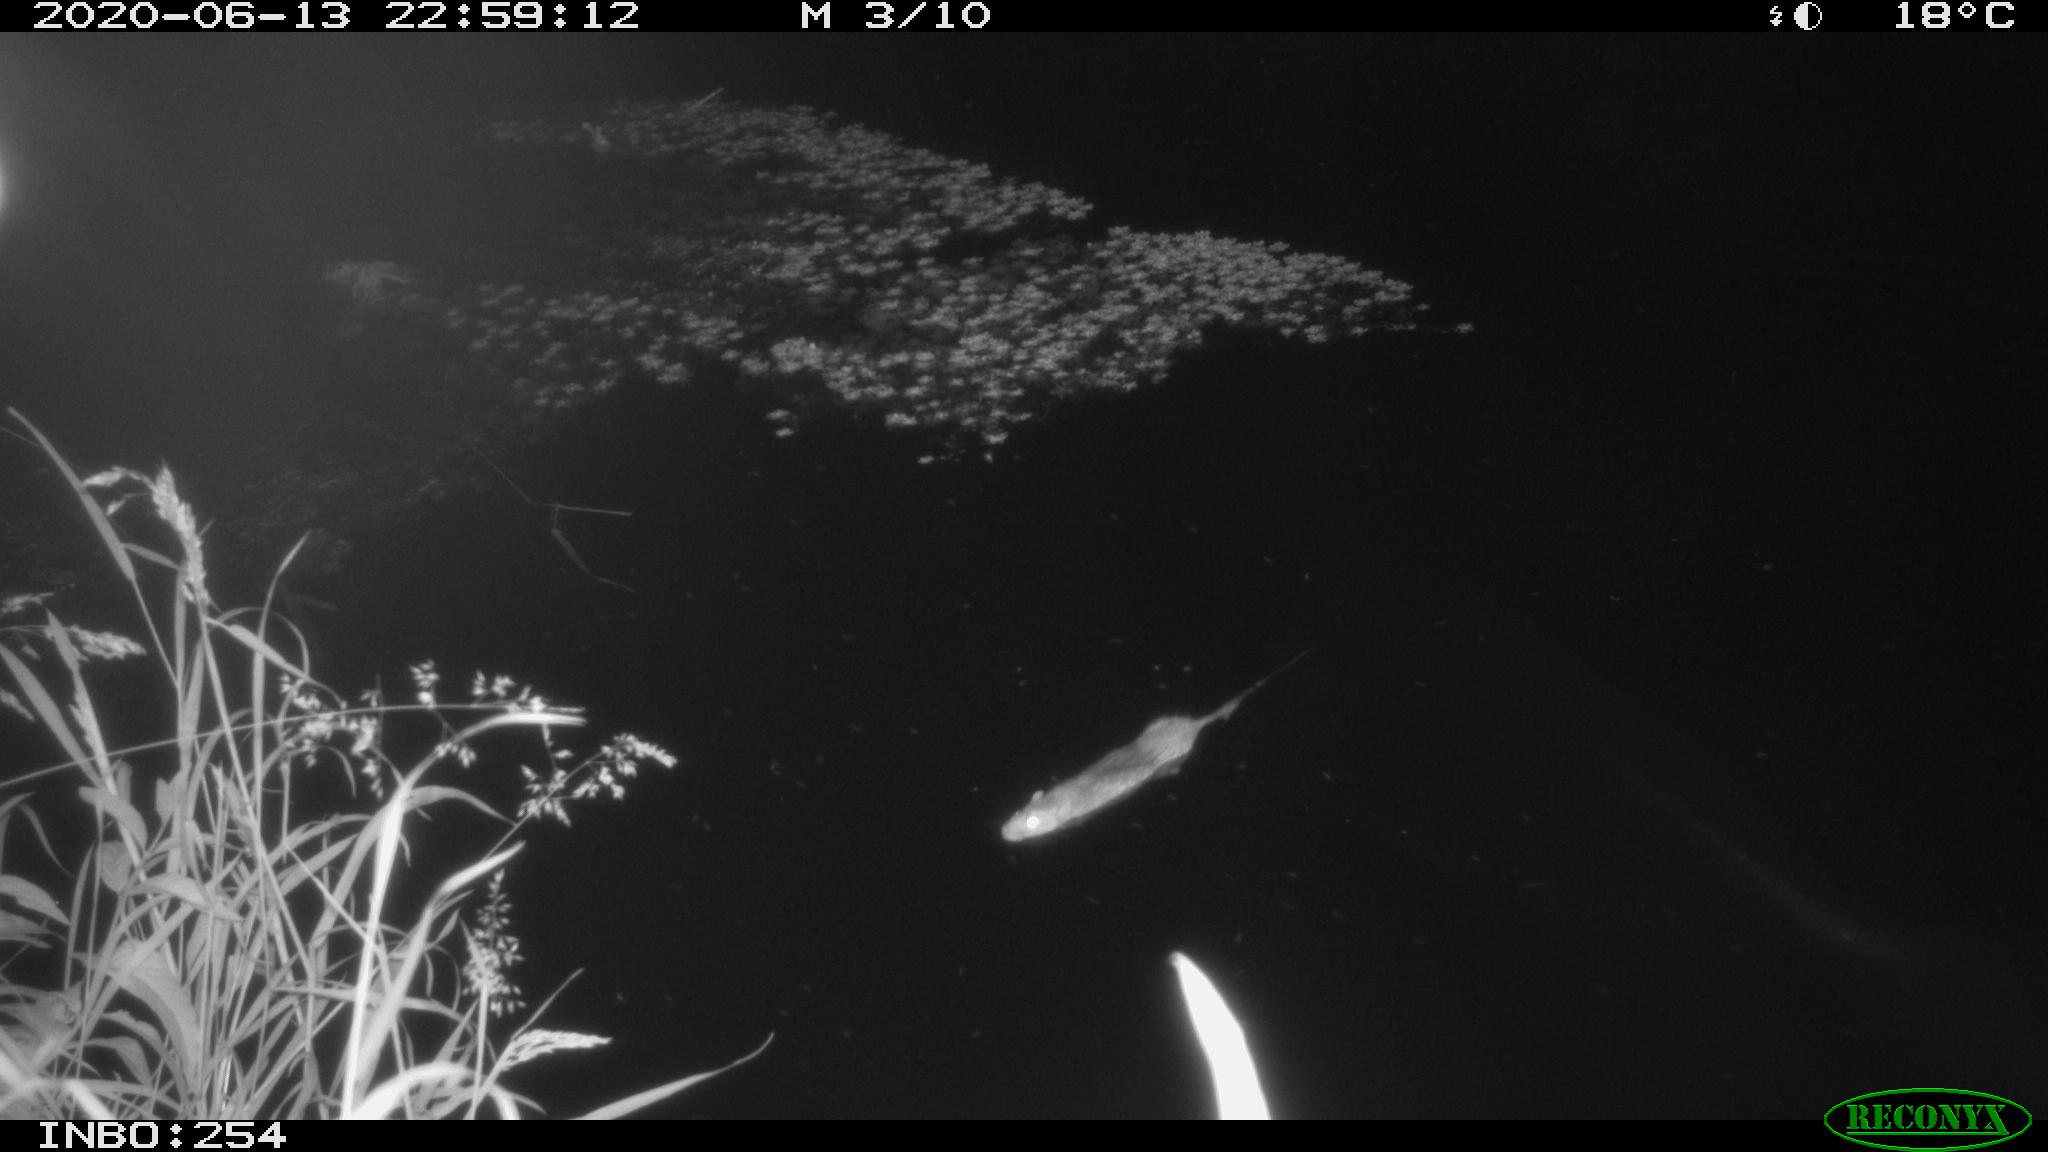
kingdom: Animalia
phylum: Chordata
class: Mammalia
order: Rodentia
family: Muridae
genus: Rattus
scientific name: Rattus norvegicus
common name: Brown rat
